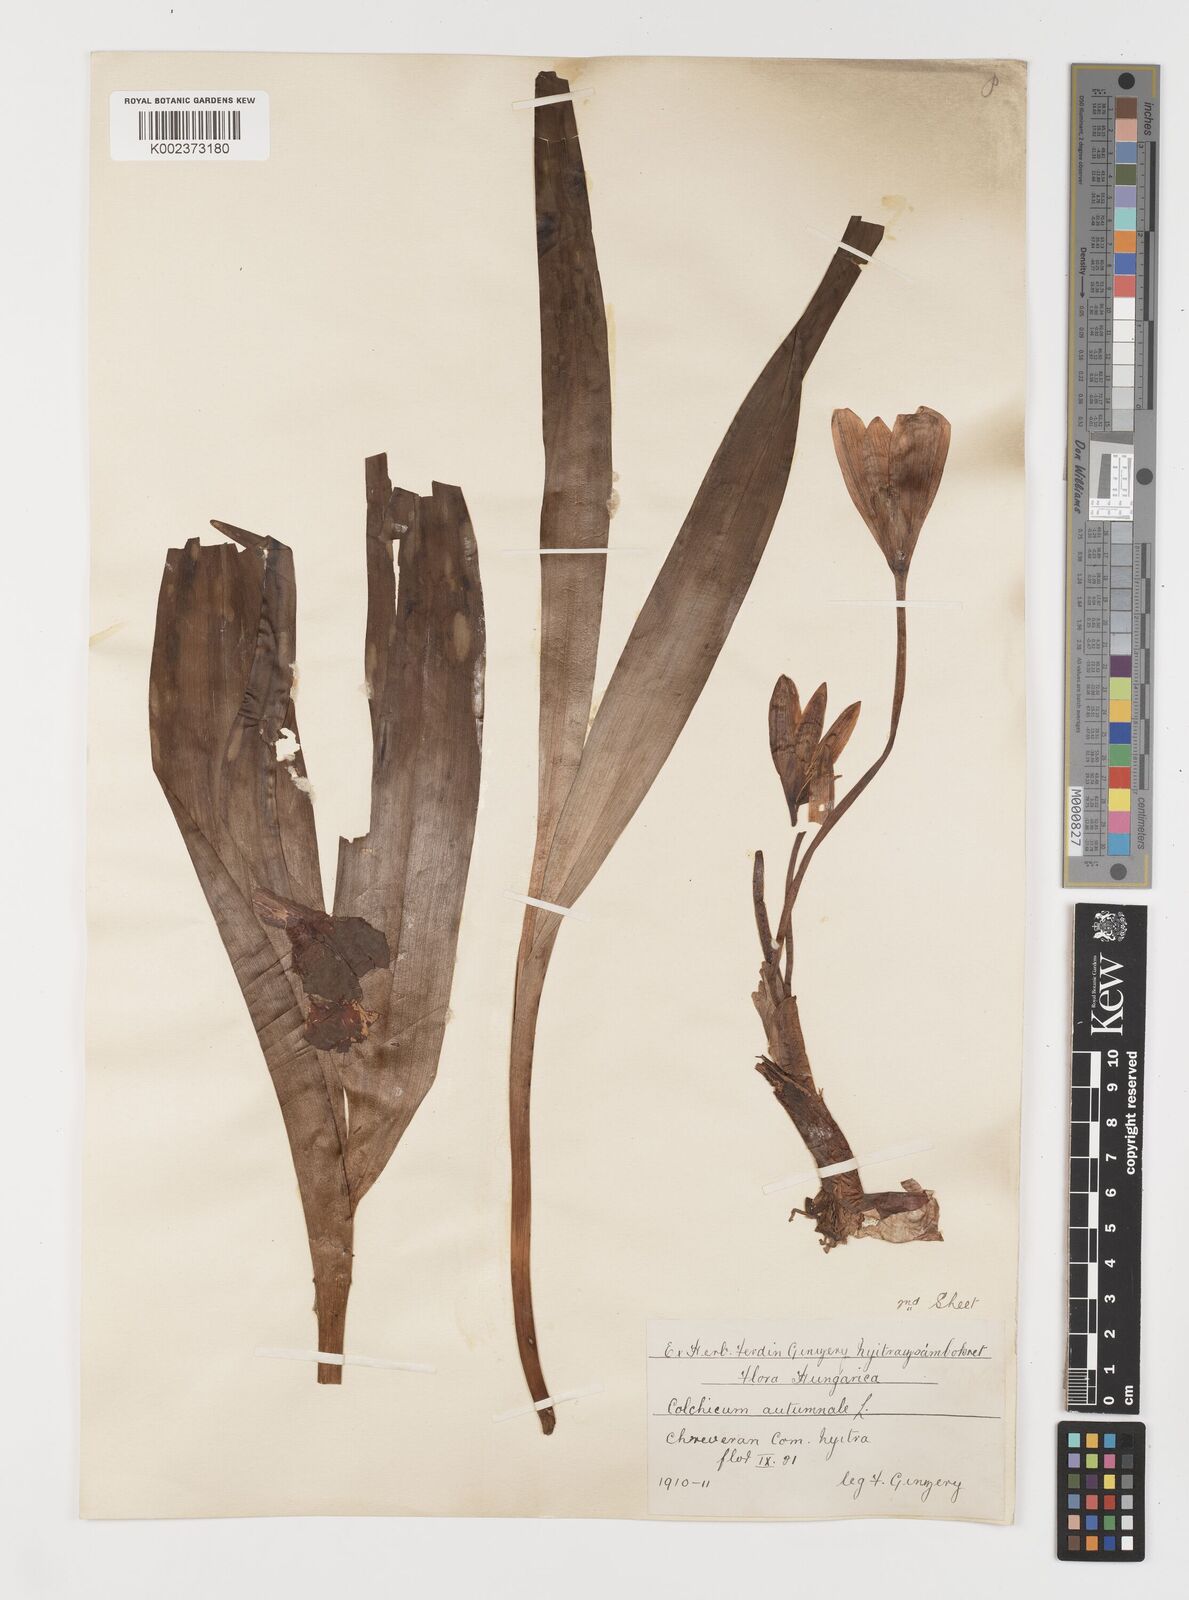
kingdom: Plantae
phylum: Tracheophyta
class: Liliopsida
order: Liliales
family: Colchicaceae
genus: Colchicum
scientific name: Colchicum autumnale
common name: Autumn crocus
